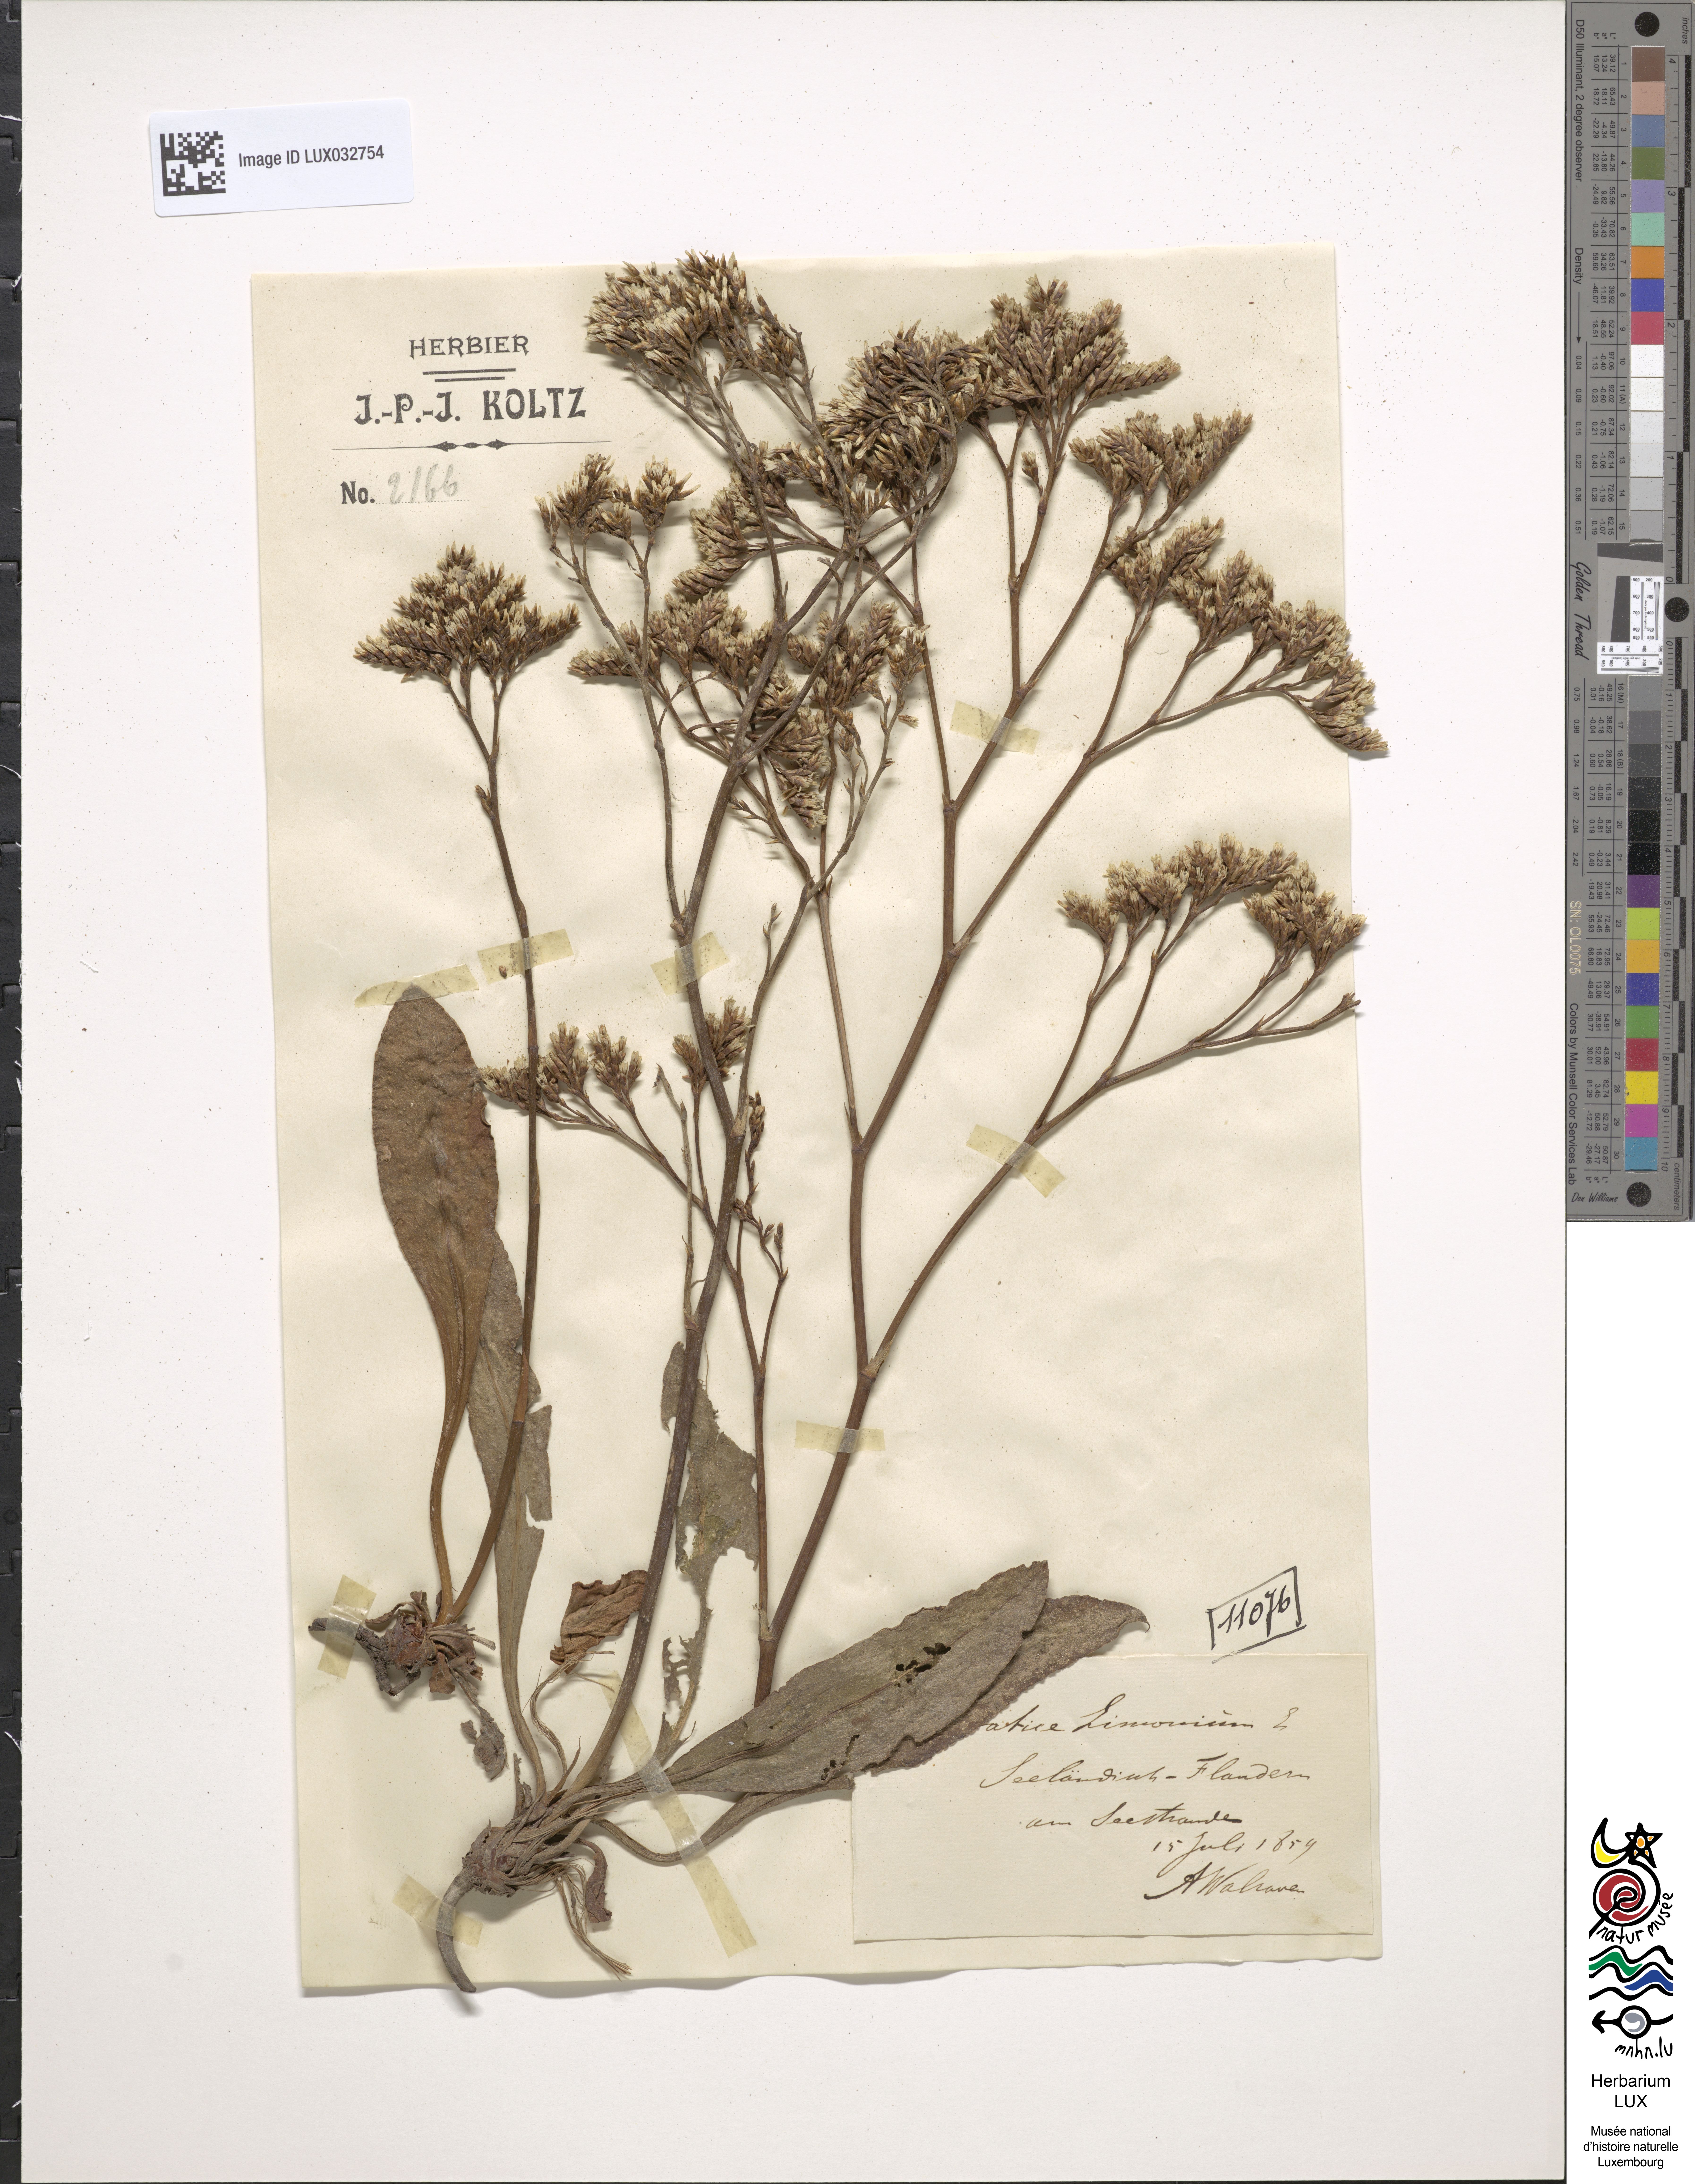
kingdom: Plantae
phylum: Tracheophyta
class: Magnoliopsida
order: Caryophyllales
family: Plumbaginaceae
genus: Limonium
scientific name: Limonium vulgare
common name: Common sea-lavender
